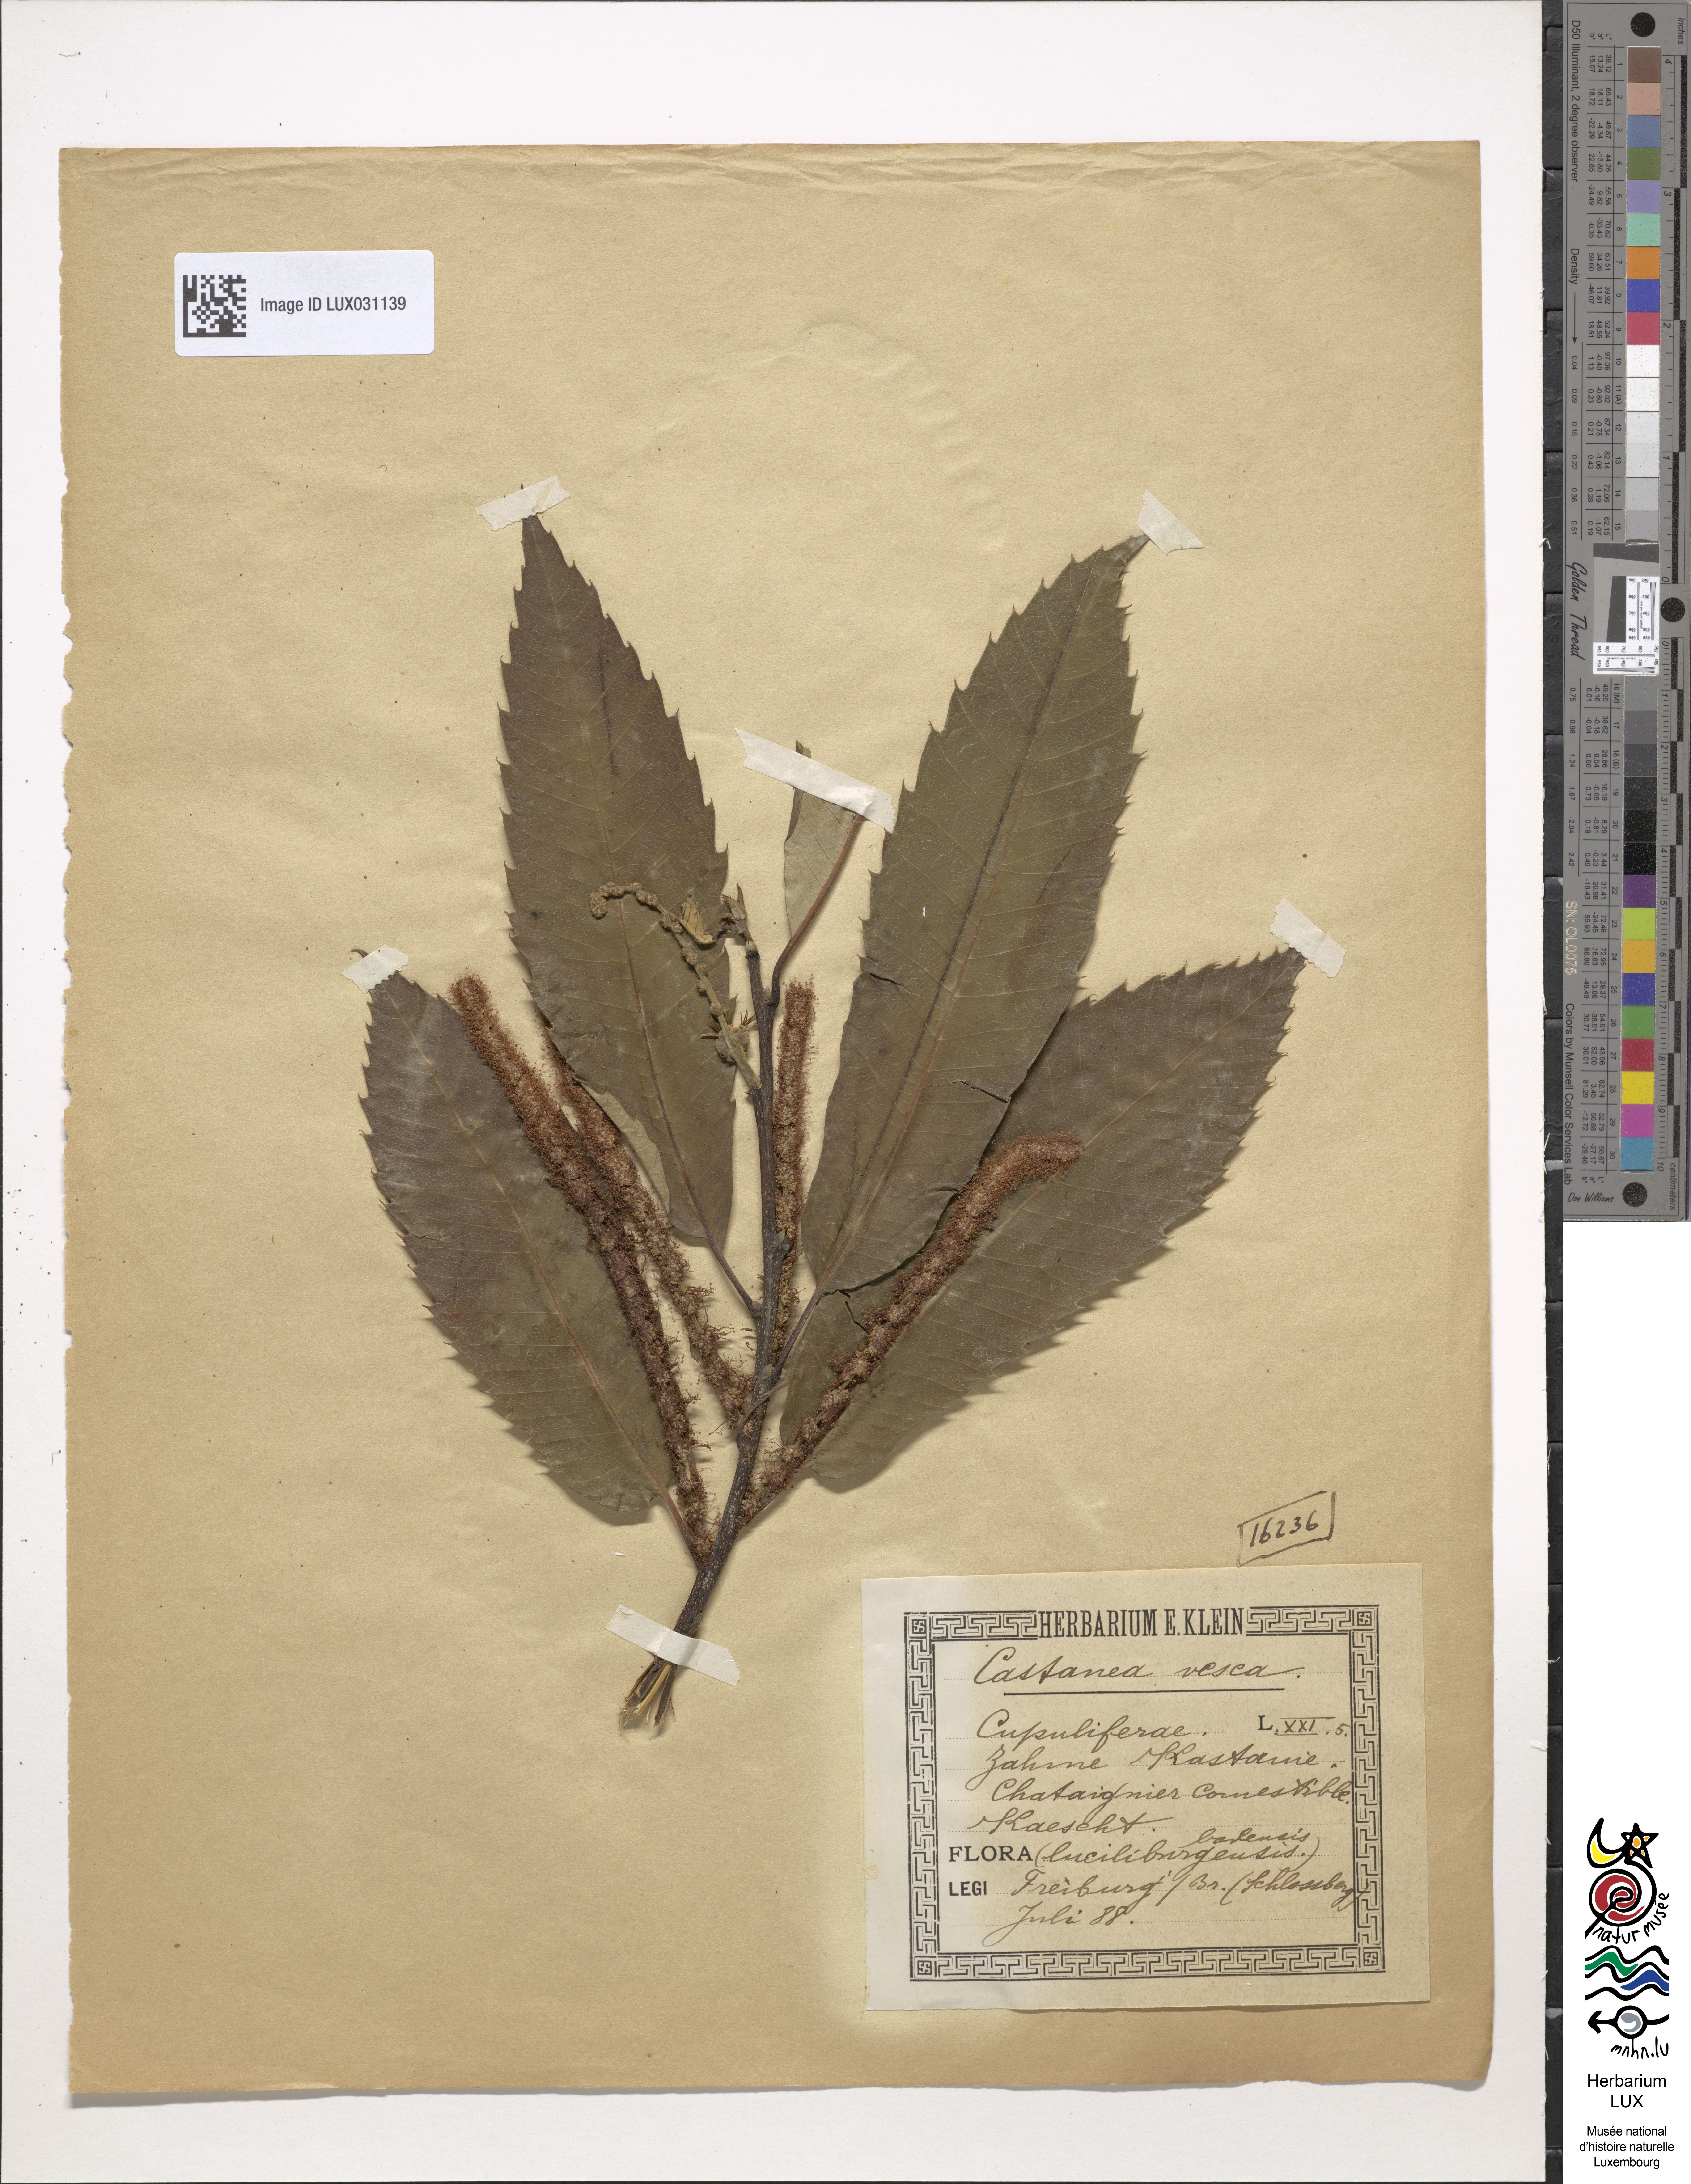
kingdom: Plantae
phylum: Tracheophyta
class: Magnoliopsida
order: Fagales
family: Fagaceae
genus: Castanea
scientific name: Castanea sativa
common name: Sweet chestnut
